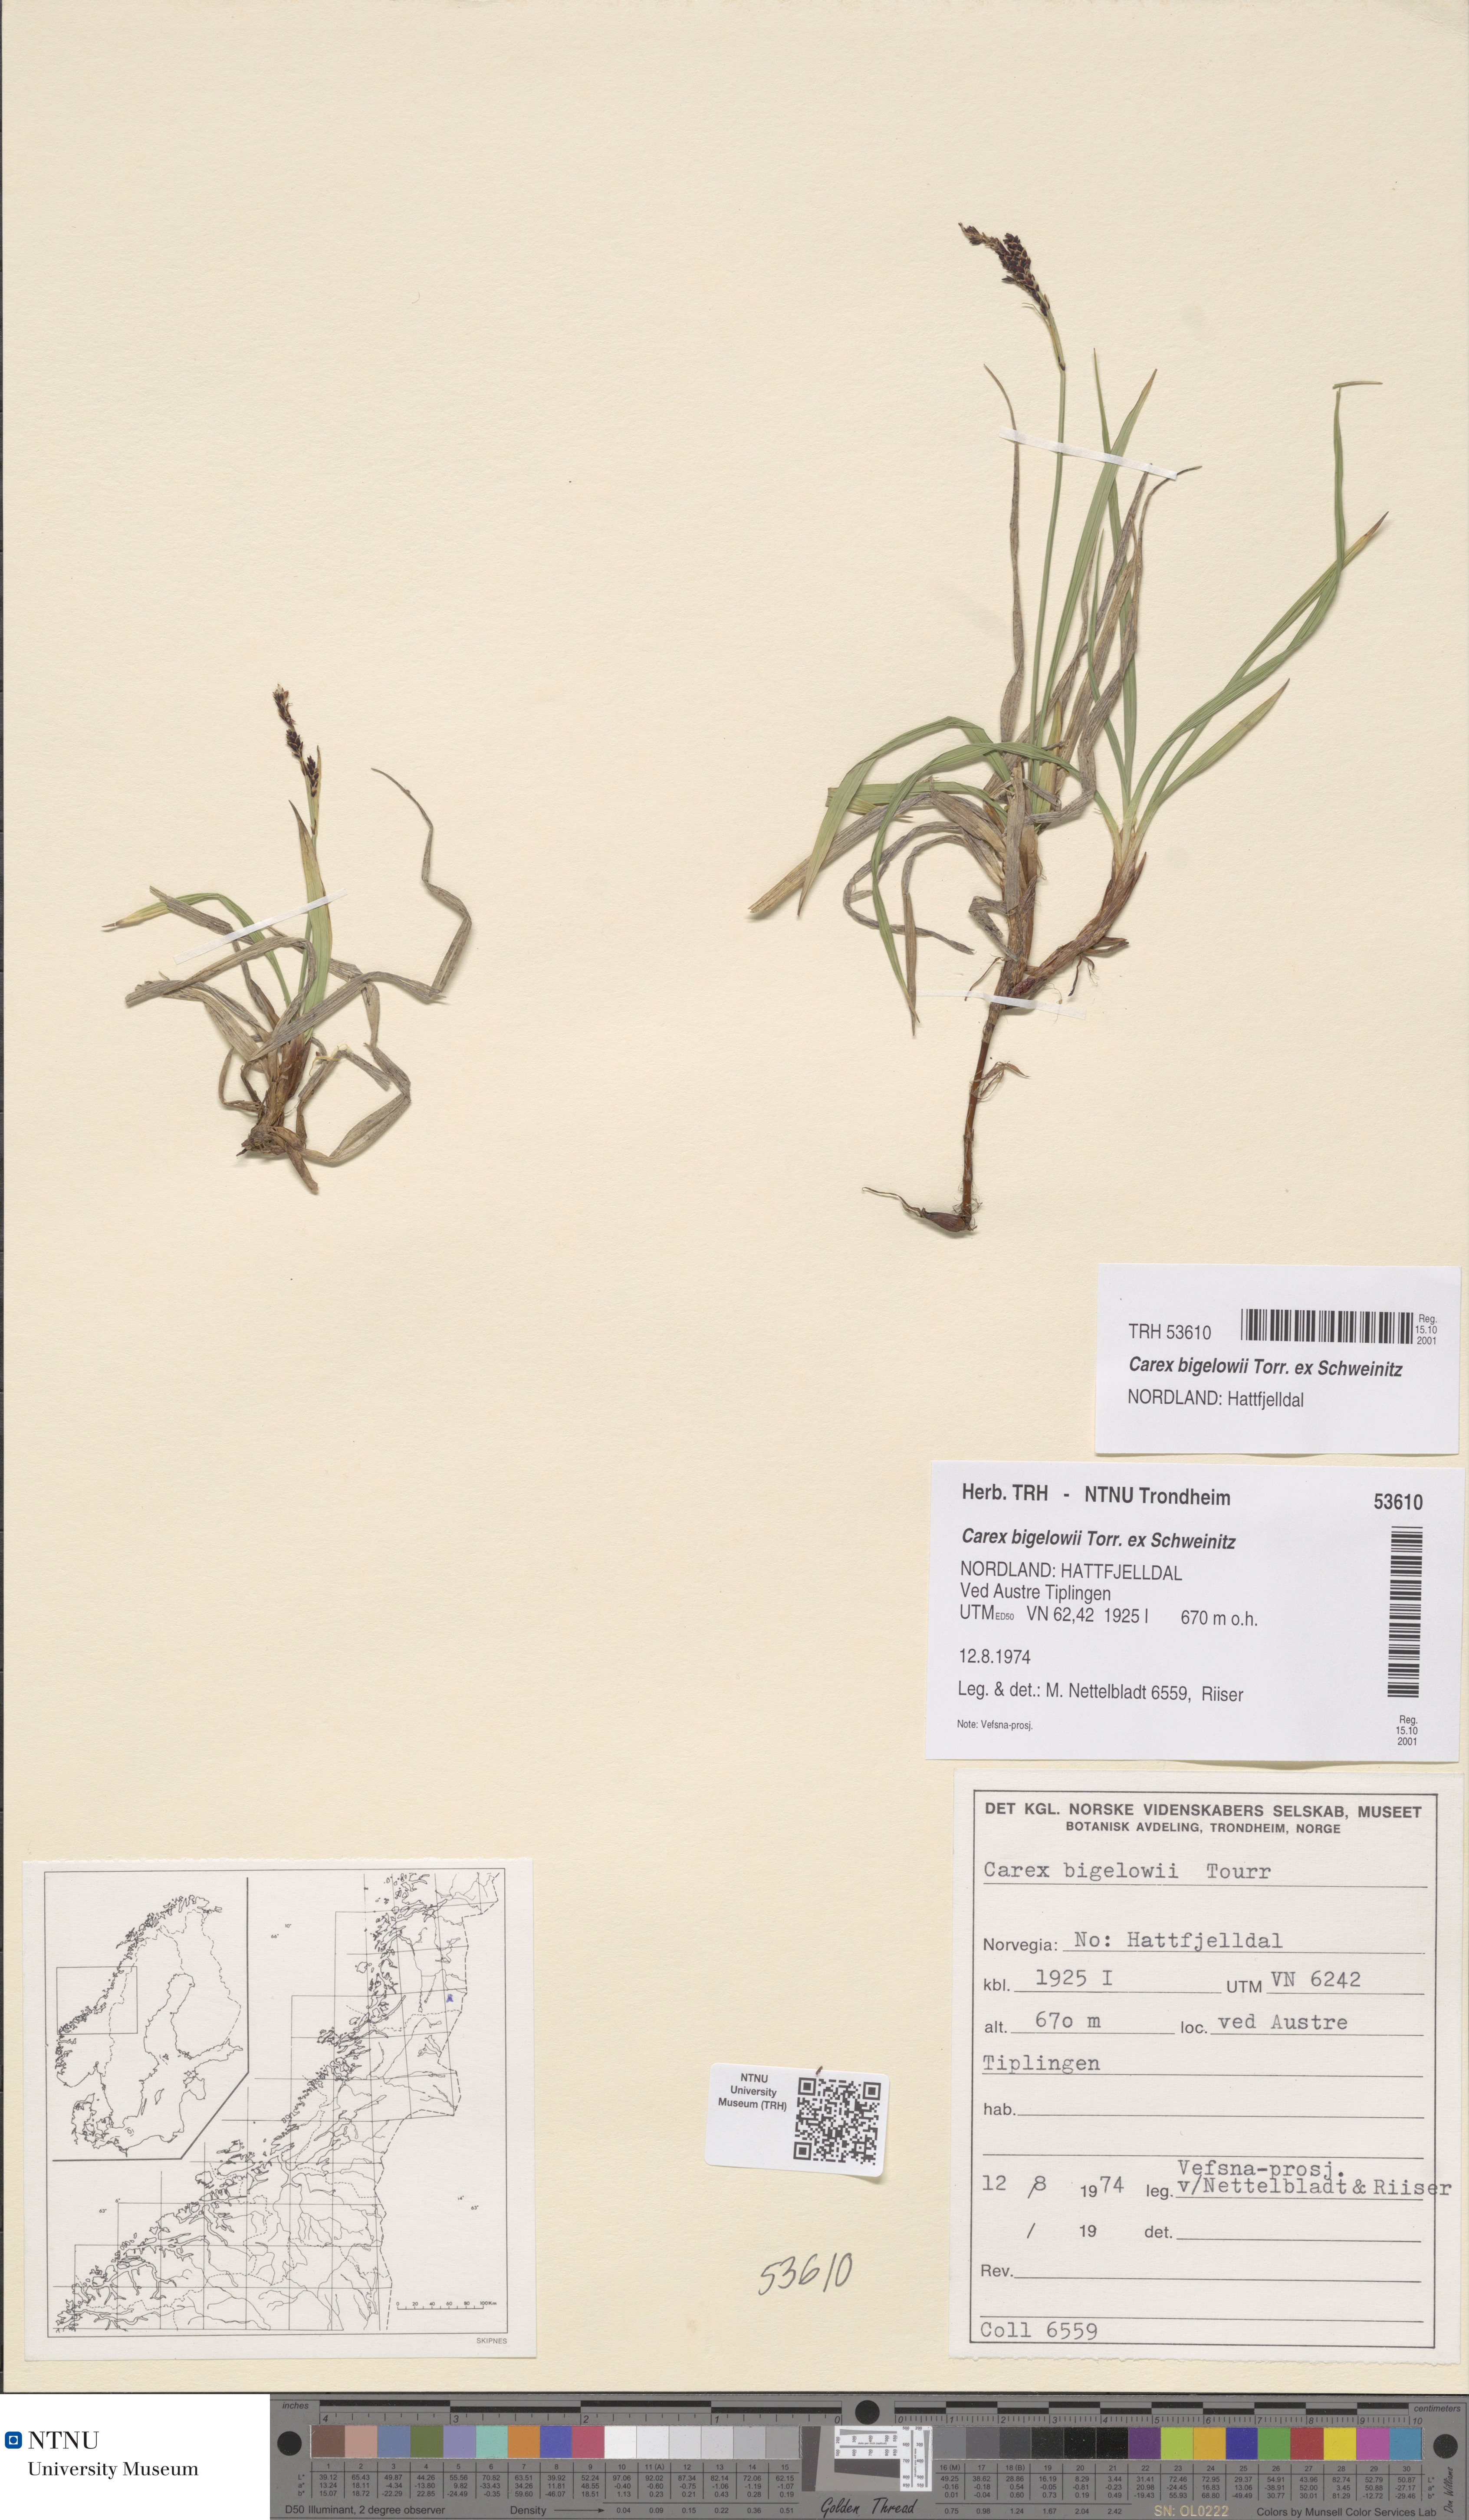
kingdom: Plantae
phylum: Tracheophyta
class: Liliopsida
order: Poales
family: Cyperaceae
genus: Carex
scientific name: Carex bigelowii
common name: Stiff sedge
